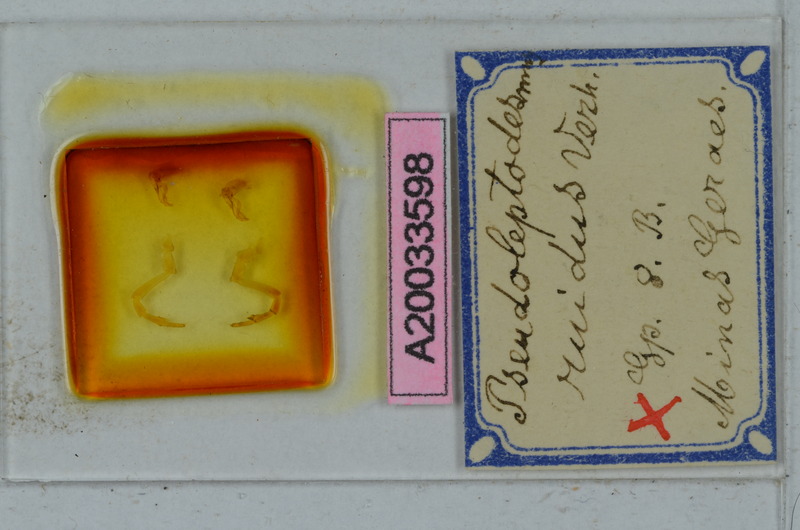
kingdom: Animalia
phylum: Arthropoda
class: Diplopoda
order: Polydesmida
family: Chelodesmidae
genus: Leptodesmus
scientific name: Leptodesmus ruidus
